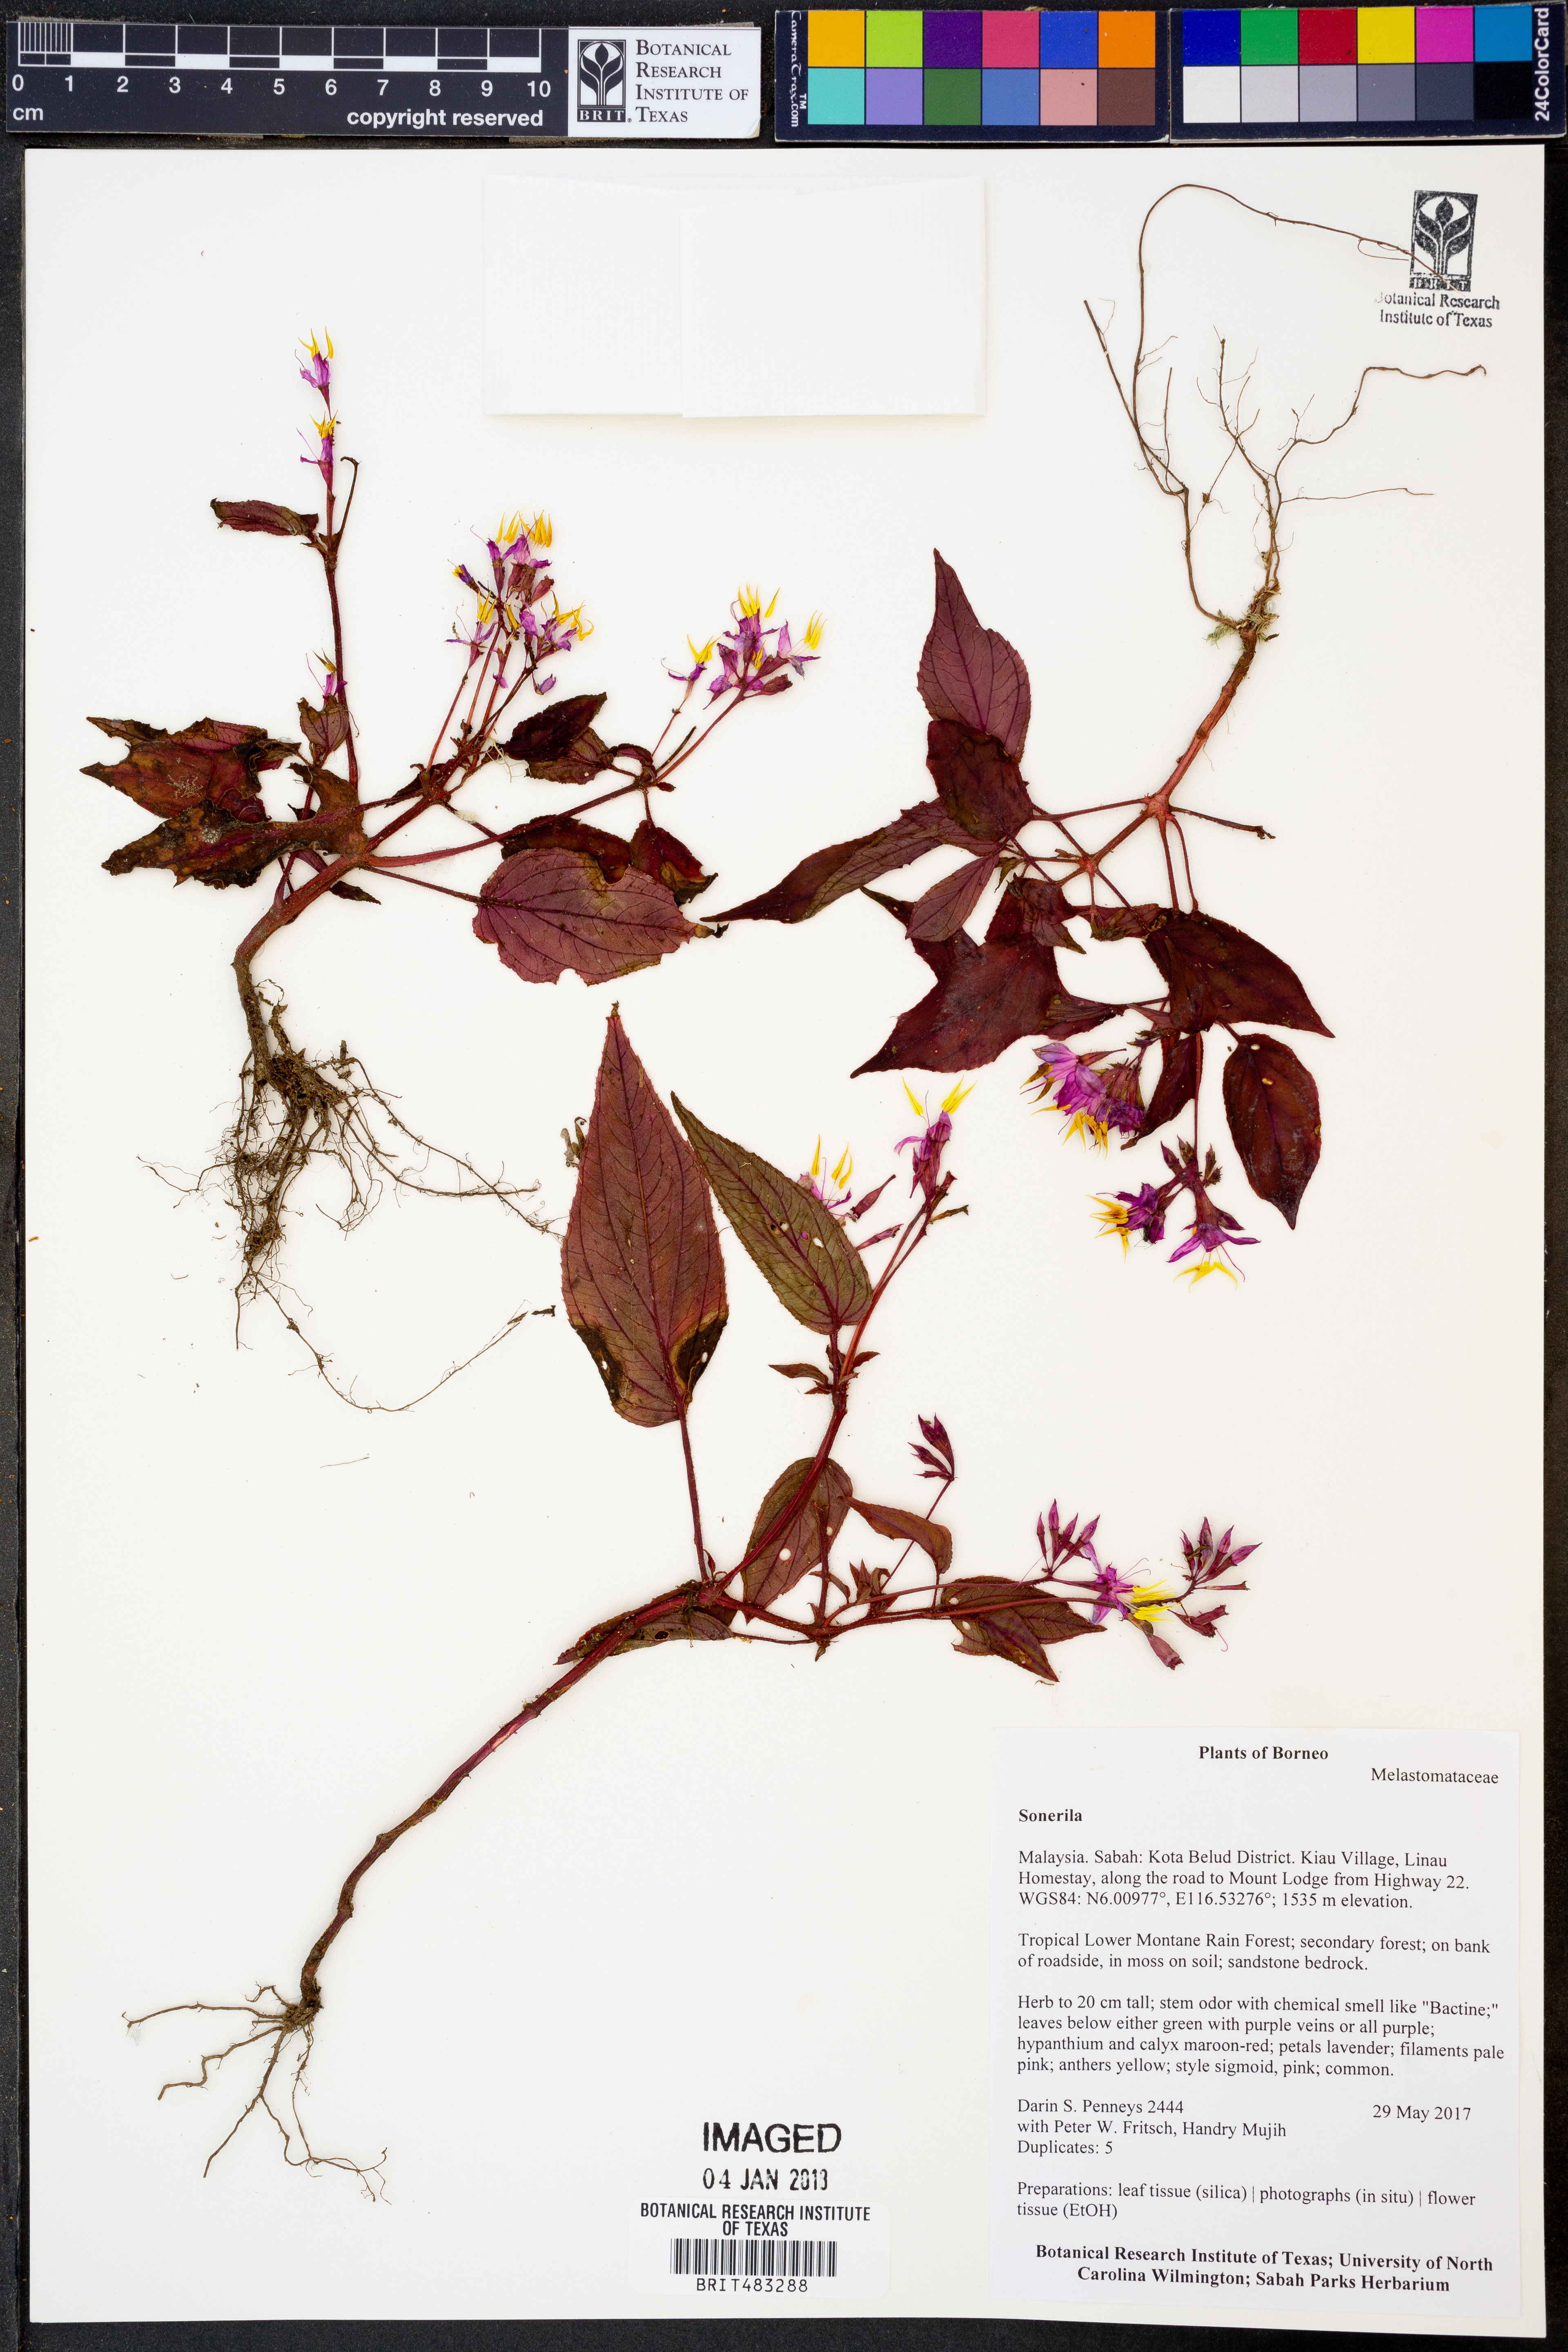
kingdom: Plantae
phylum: Tracheophyta
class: Magnoliopsida
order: Myrtales
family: Melastomataceae
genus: Sonerila
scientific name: Sonerila
